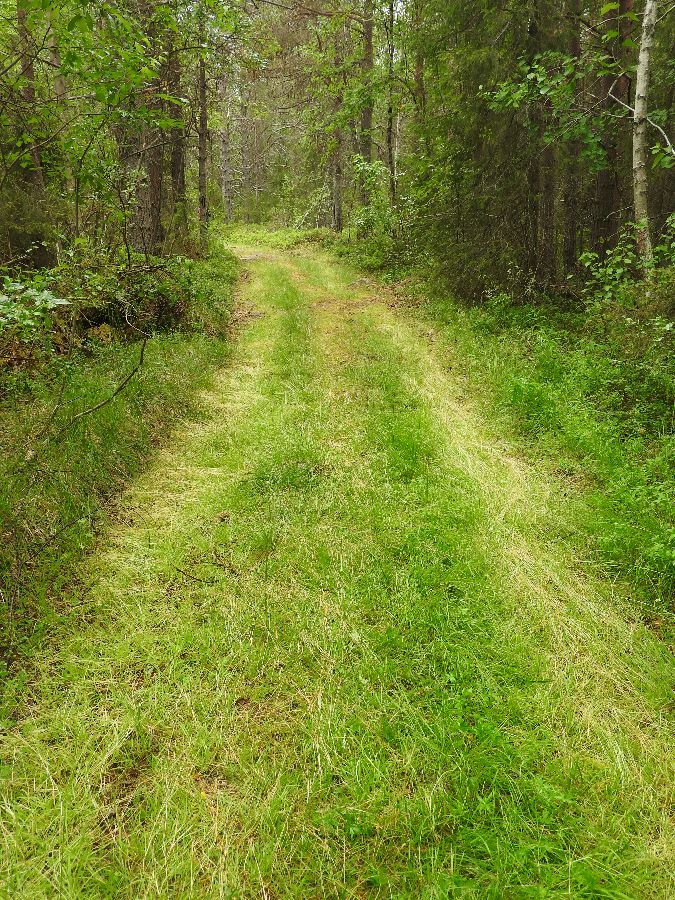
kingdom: Plantae
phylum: Tracheophyta
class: Liliopsida
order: Poales
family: Poaceae
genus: Poa
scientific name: Poa supina
